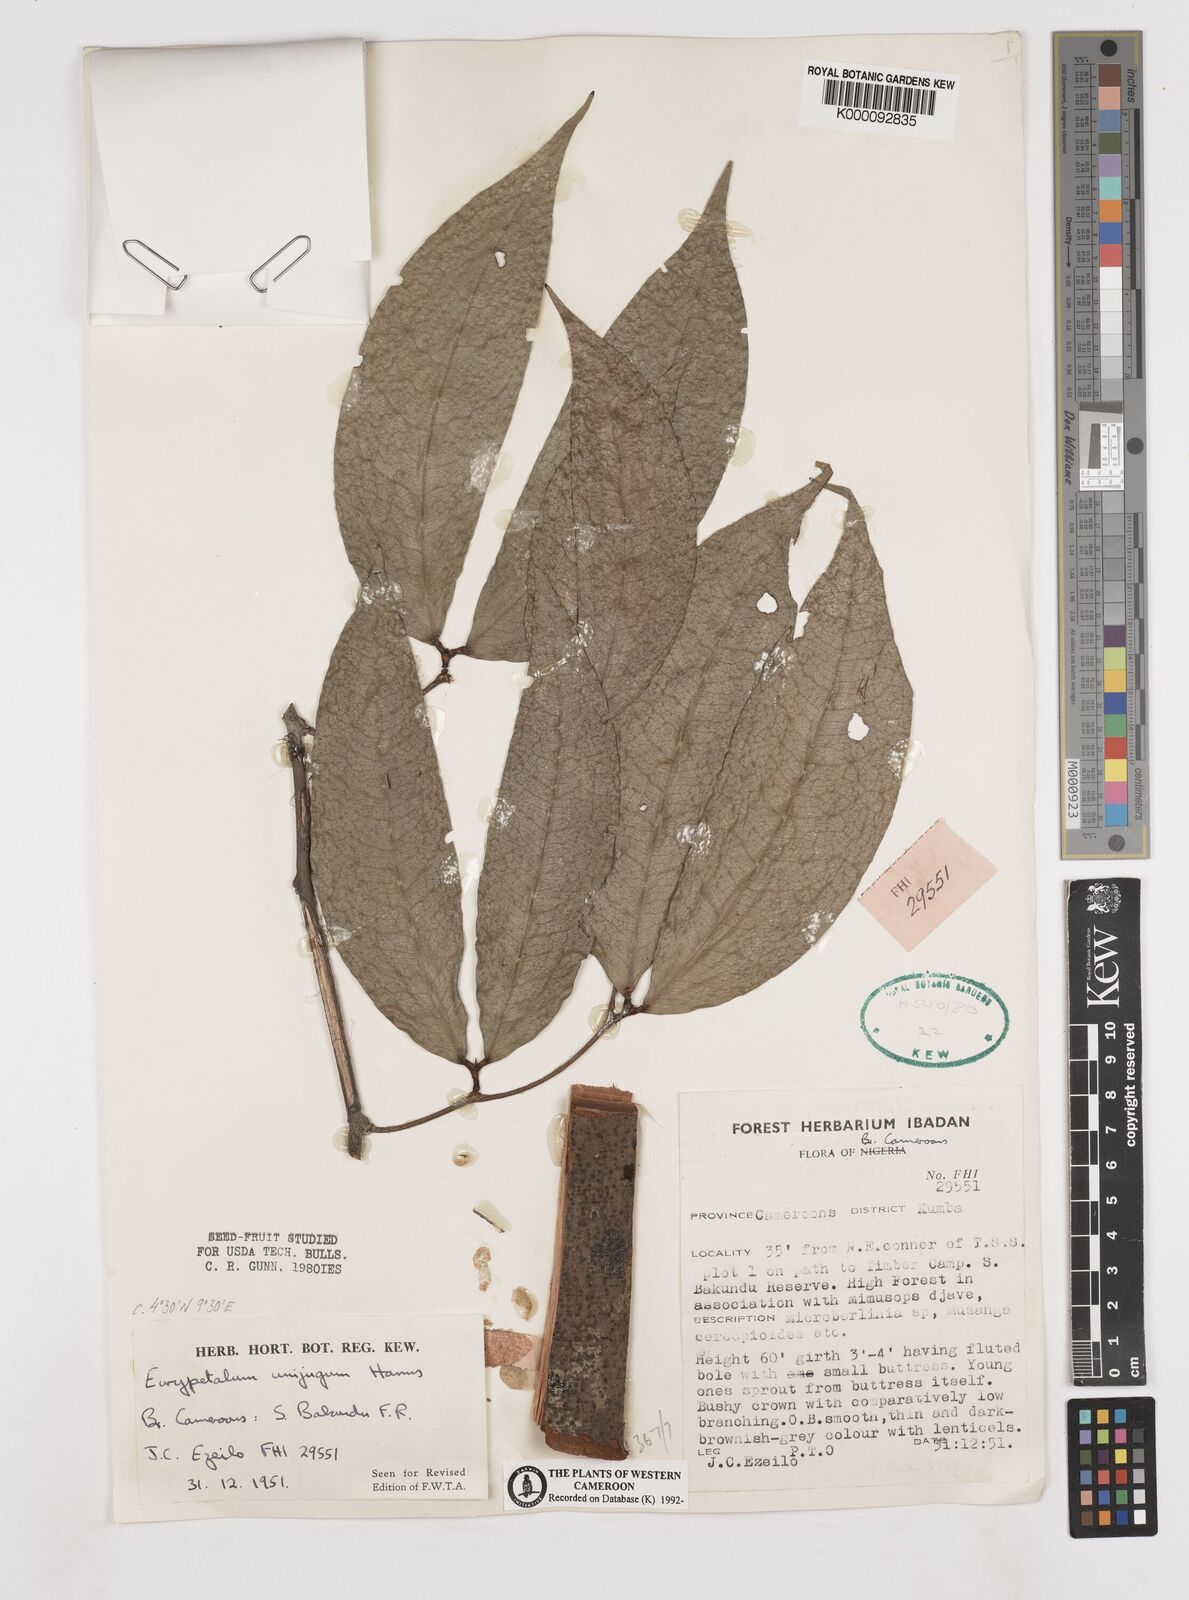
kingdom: Plantae
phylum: Tracheophyta
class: Magnoliopsida
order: Fabales
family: Fabaceae
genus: Eurypetalum
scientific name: Eurypetalum unijugum
